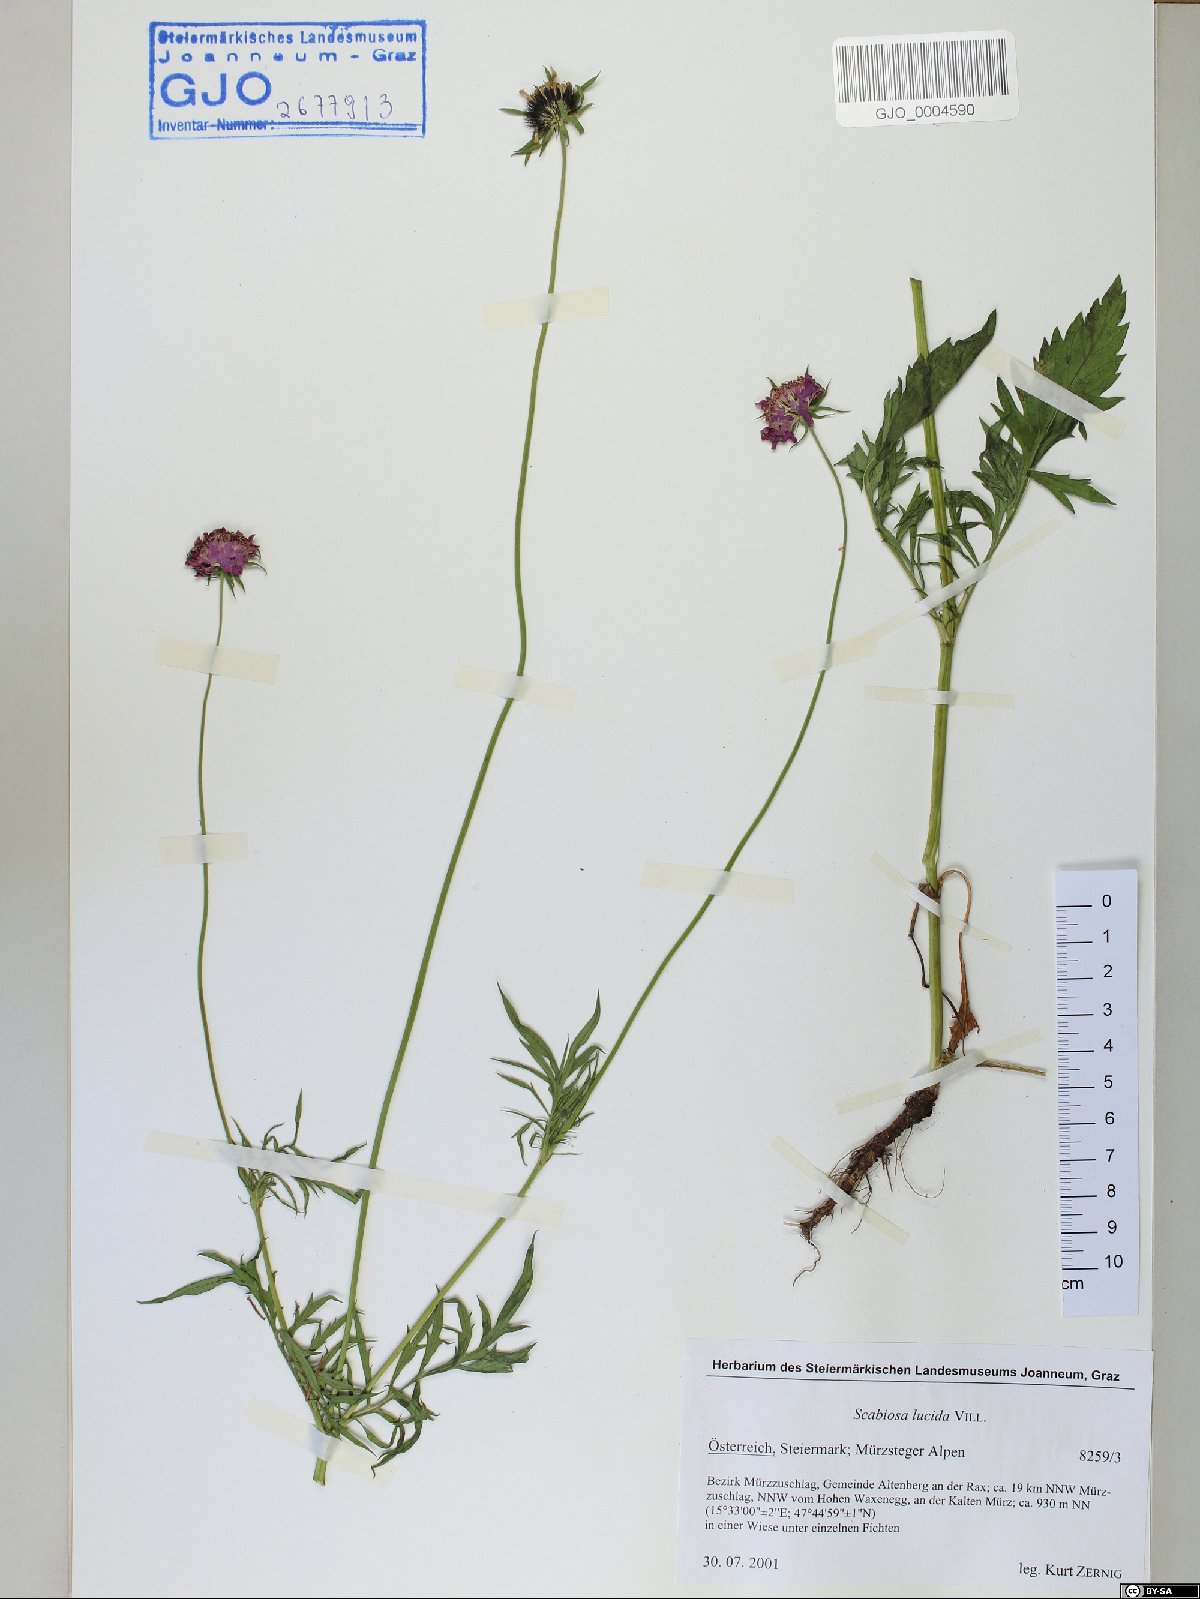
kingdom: Plantae
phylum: Tracheophyta
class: Magnoliopsida
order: Dipsacales
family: Caprifoliaceae
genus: Scabiosa
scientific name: Scabiosa lucida
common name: Shining scabious
